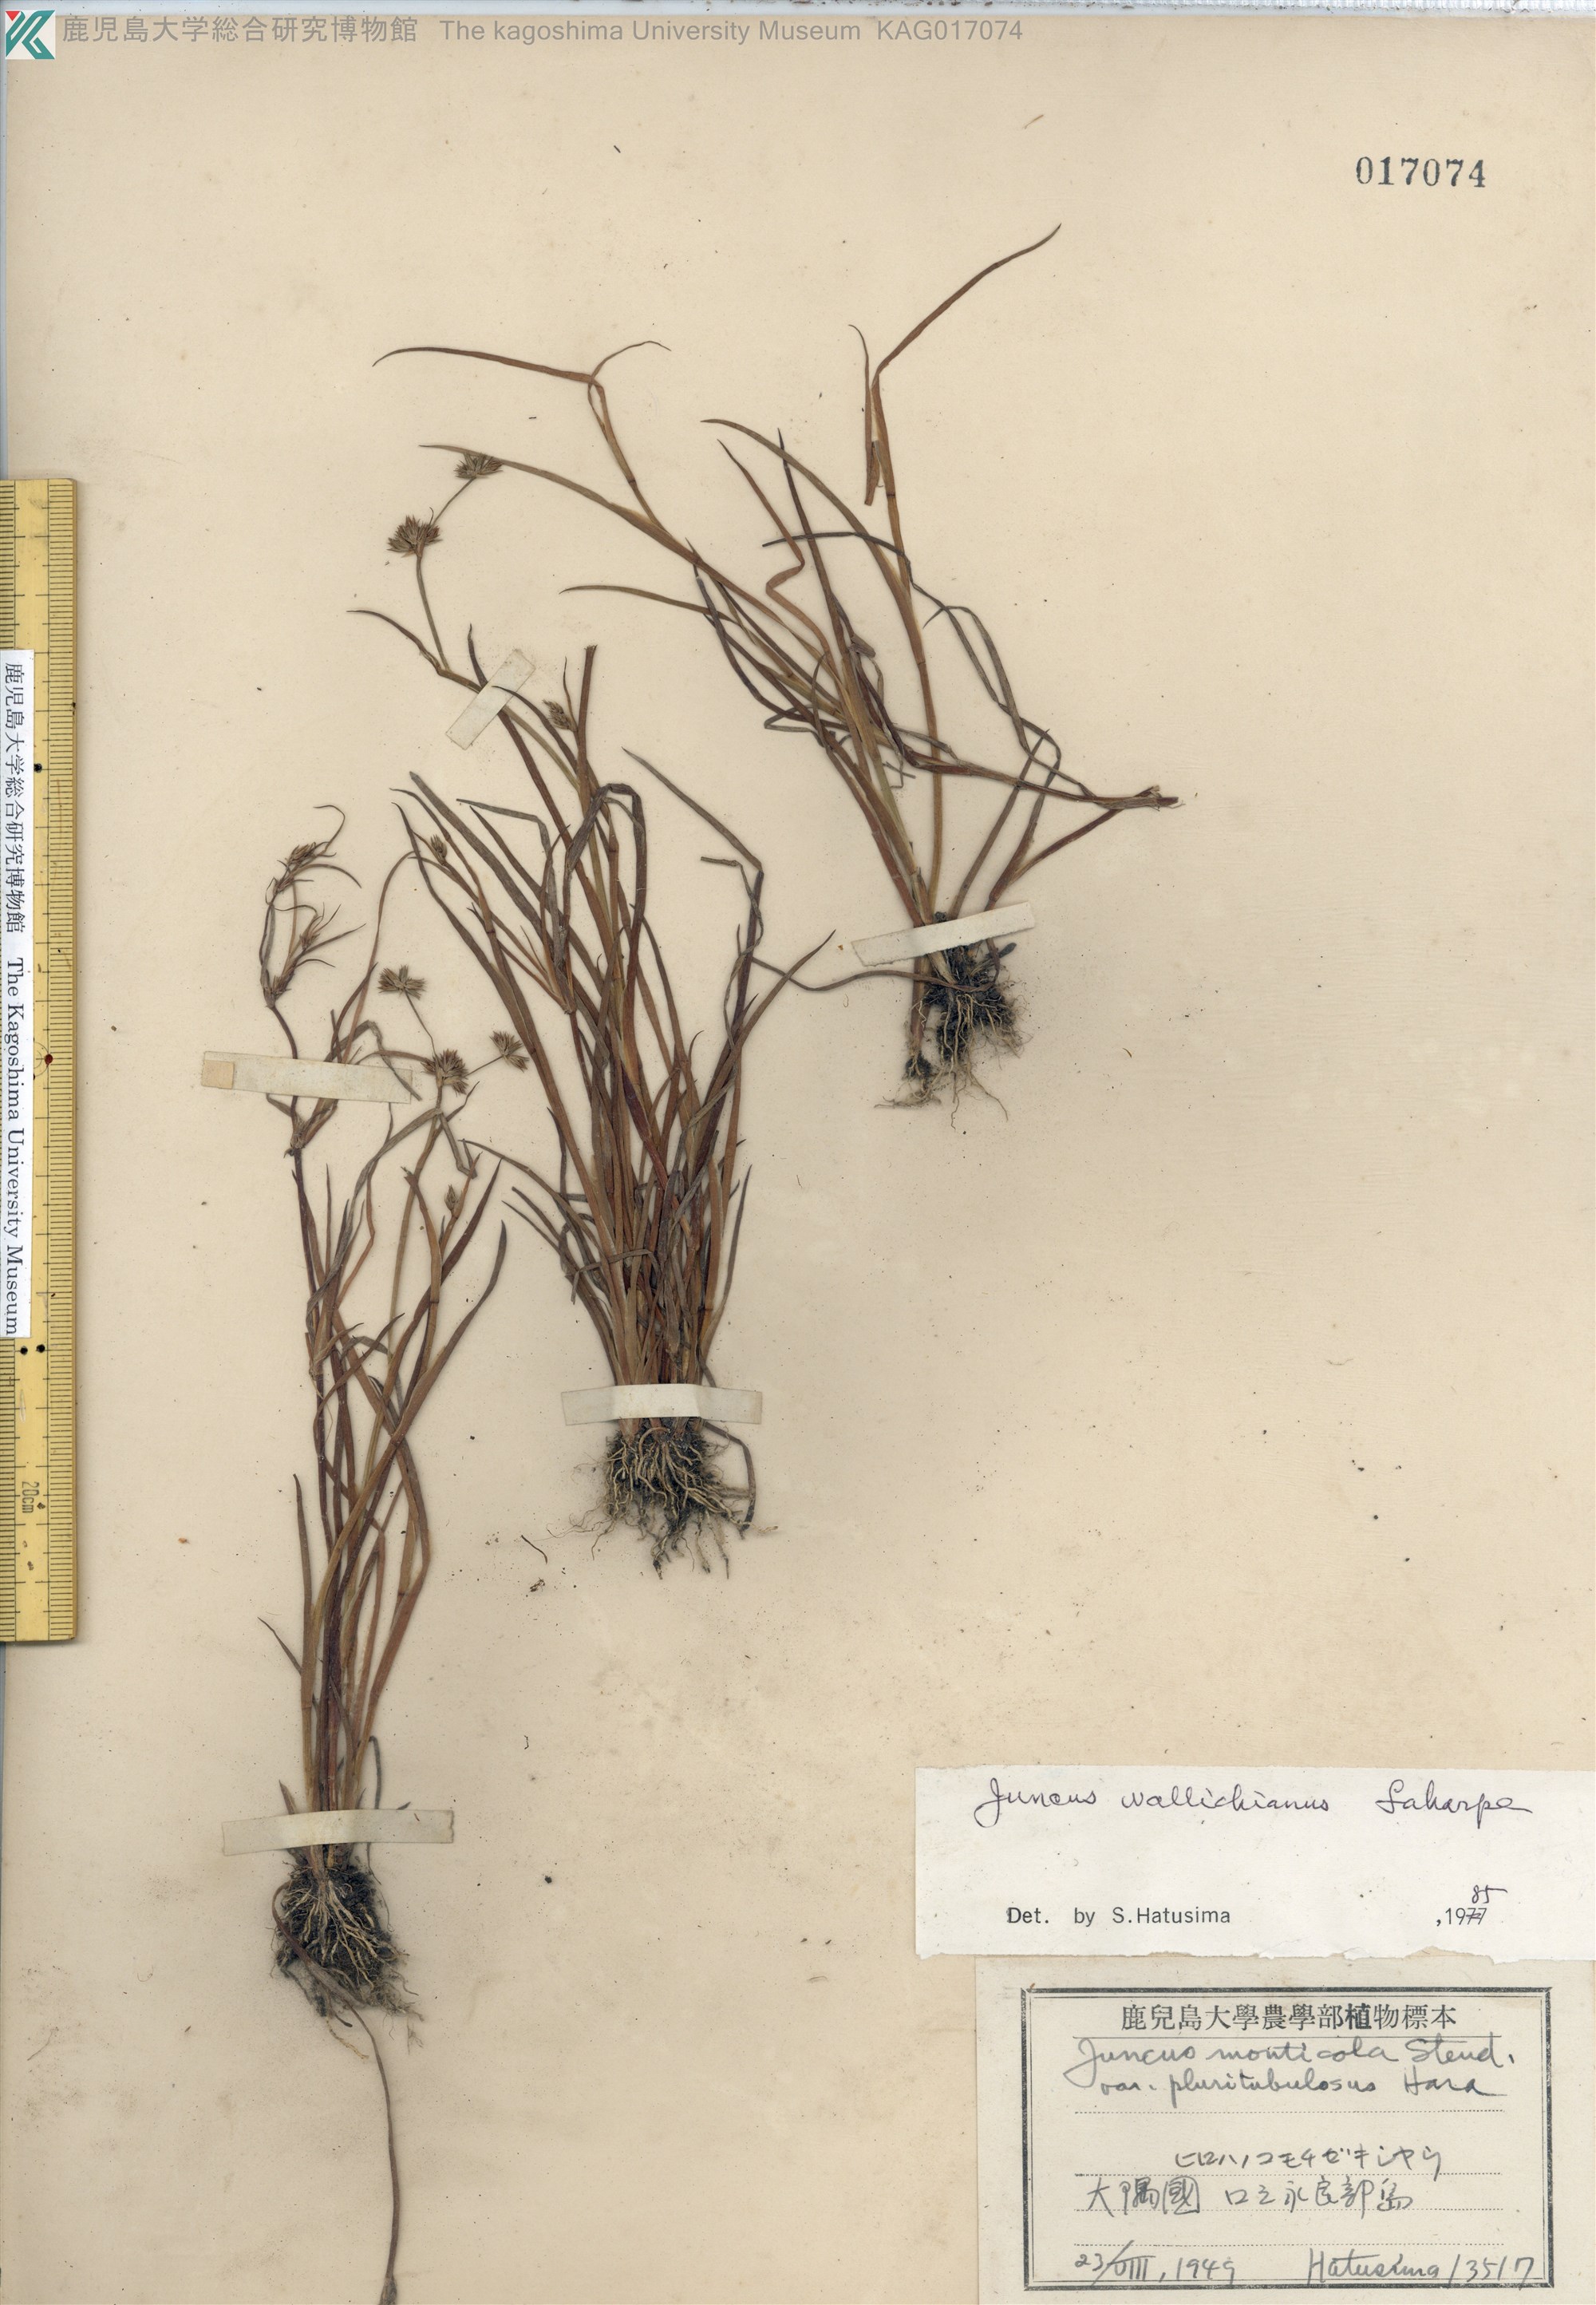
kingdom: Plantae
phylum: Tracheophyta
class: Liliopsida
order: Poales
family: Juncaceae
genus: Juncus
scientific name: Juncus prismatocarpus
